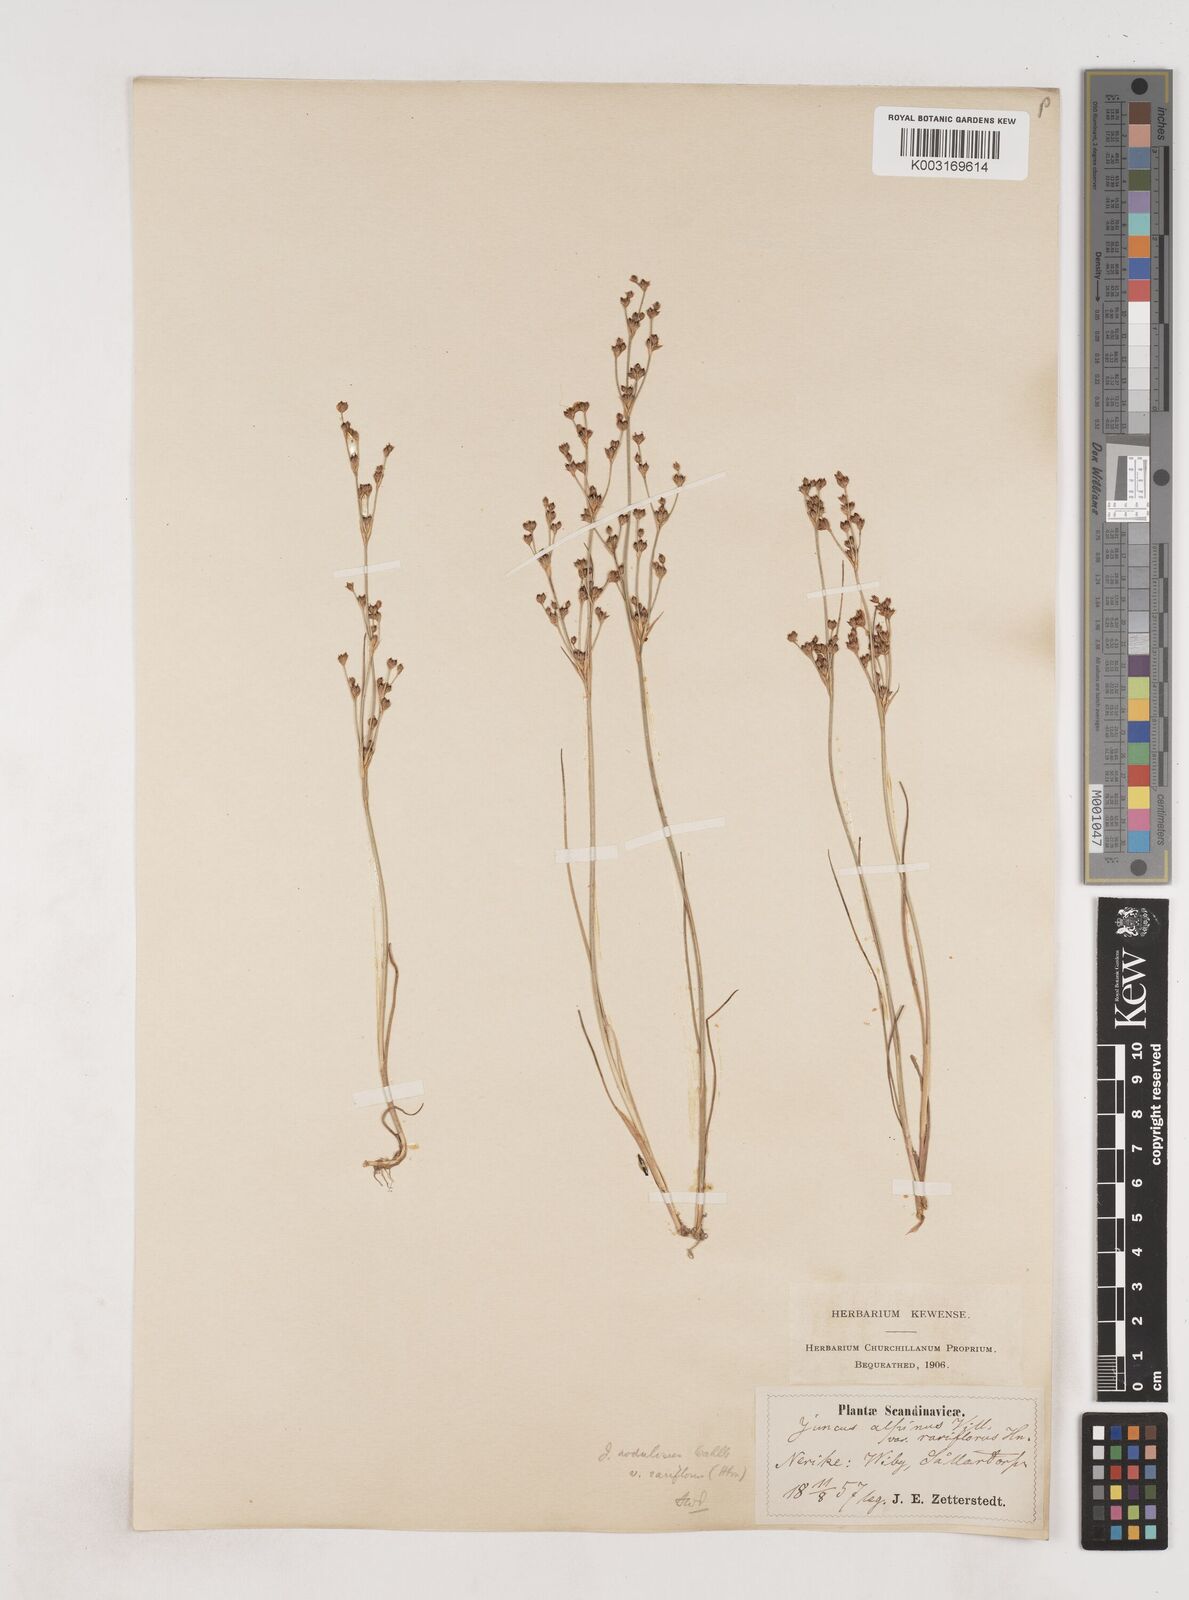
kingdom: Plantae
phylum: Tracheophyta
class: Liliopsida
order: Poales
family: Juncaceae
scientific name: Juncaceae
